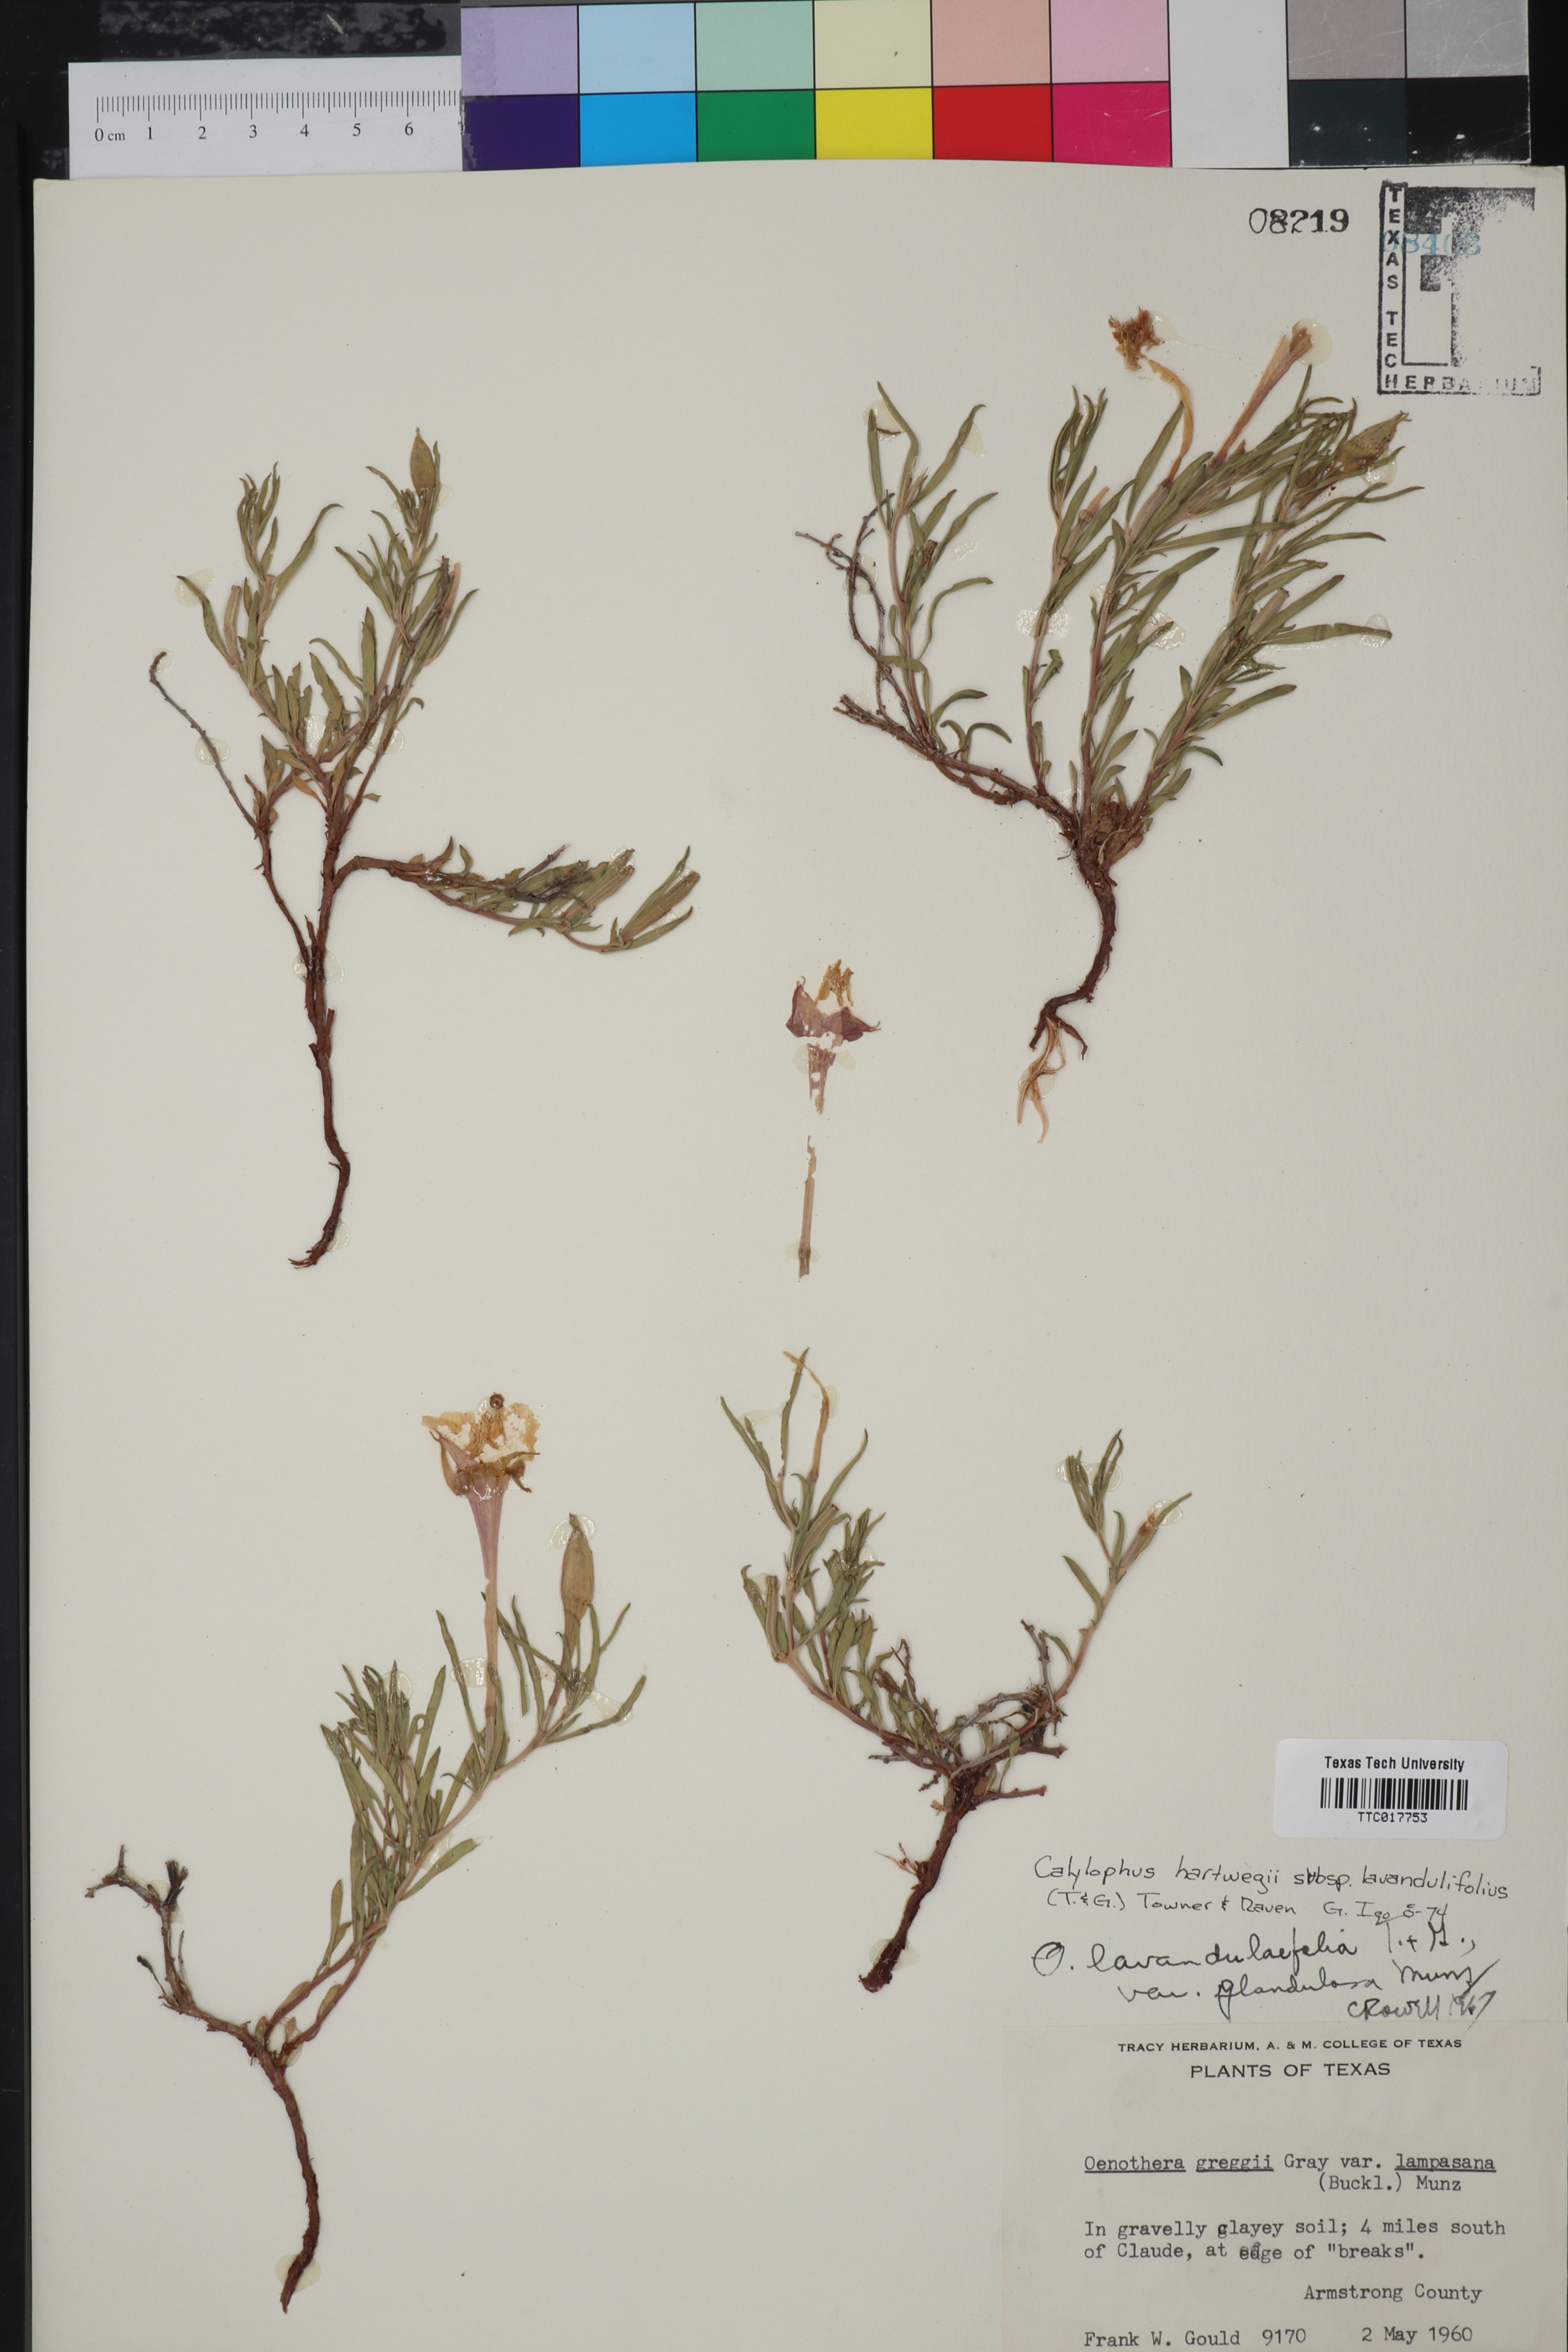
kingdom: Plantae
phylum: Tracheophyta
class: Magnoliopsida
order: Myrtales
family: Onagraceae
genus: Oenothera
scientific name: Oenothera hartwegii
